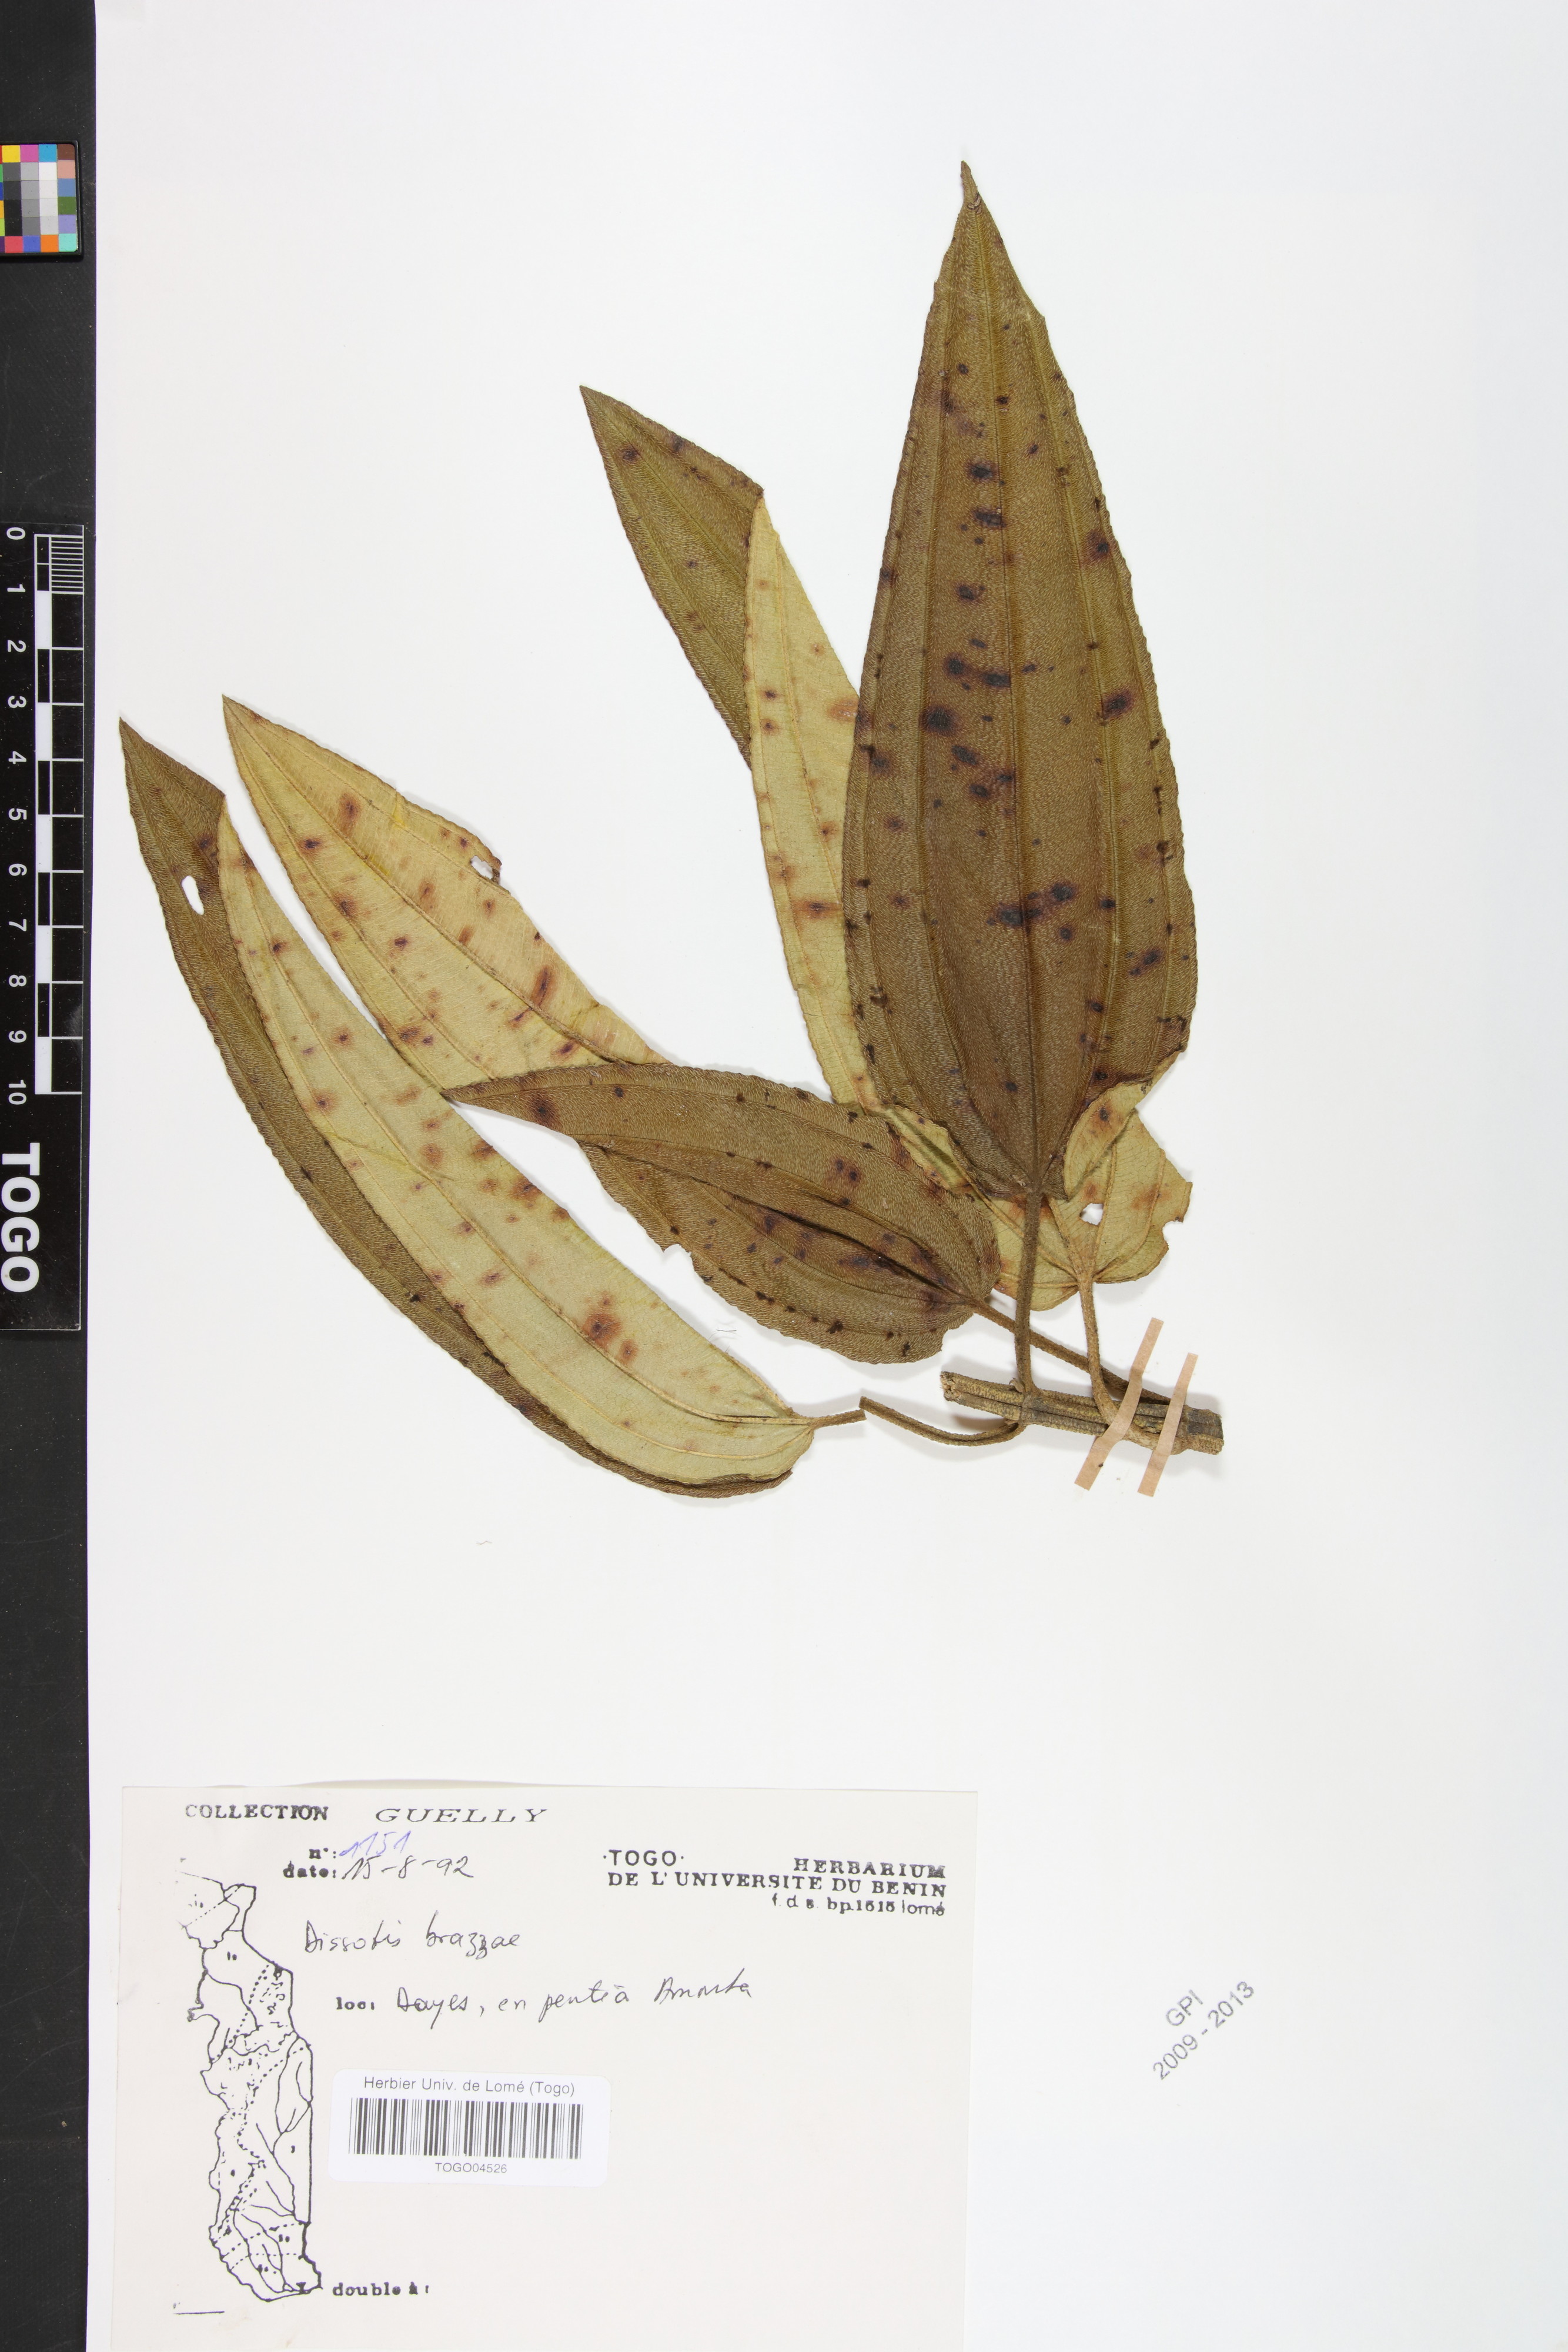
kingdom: Plantae
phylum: Tracheophyta
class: Magnoliopsida
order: Myrtales
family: Melastomataceae
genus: Dupineta
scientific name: Dupineta brazzae
